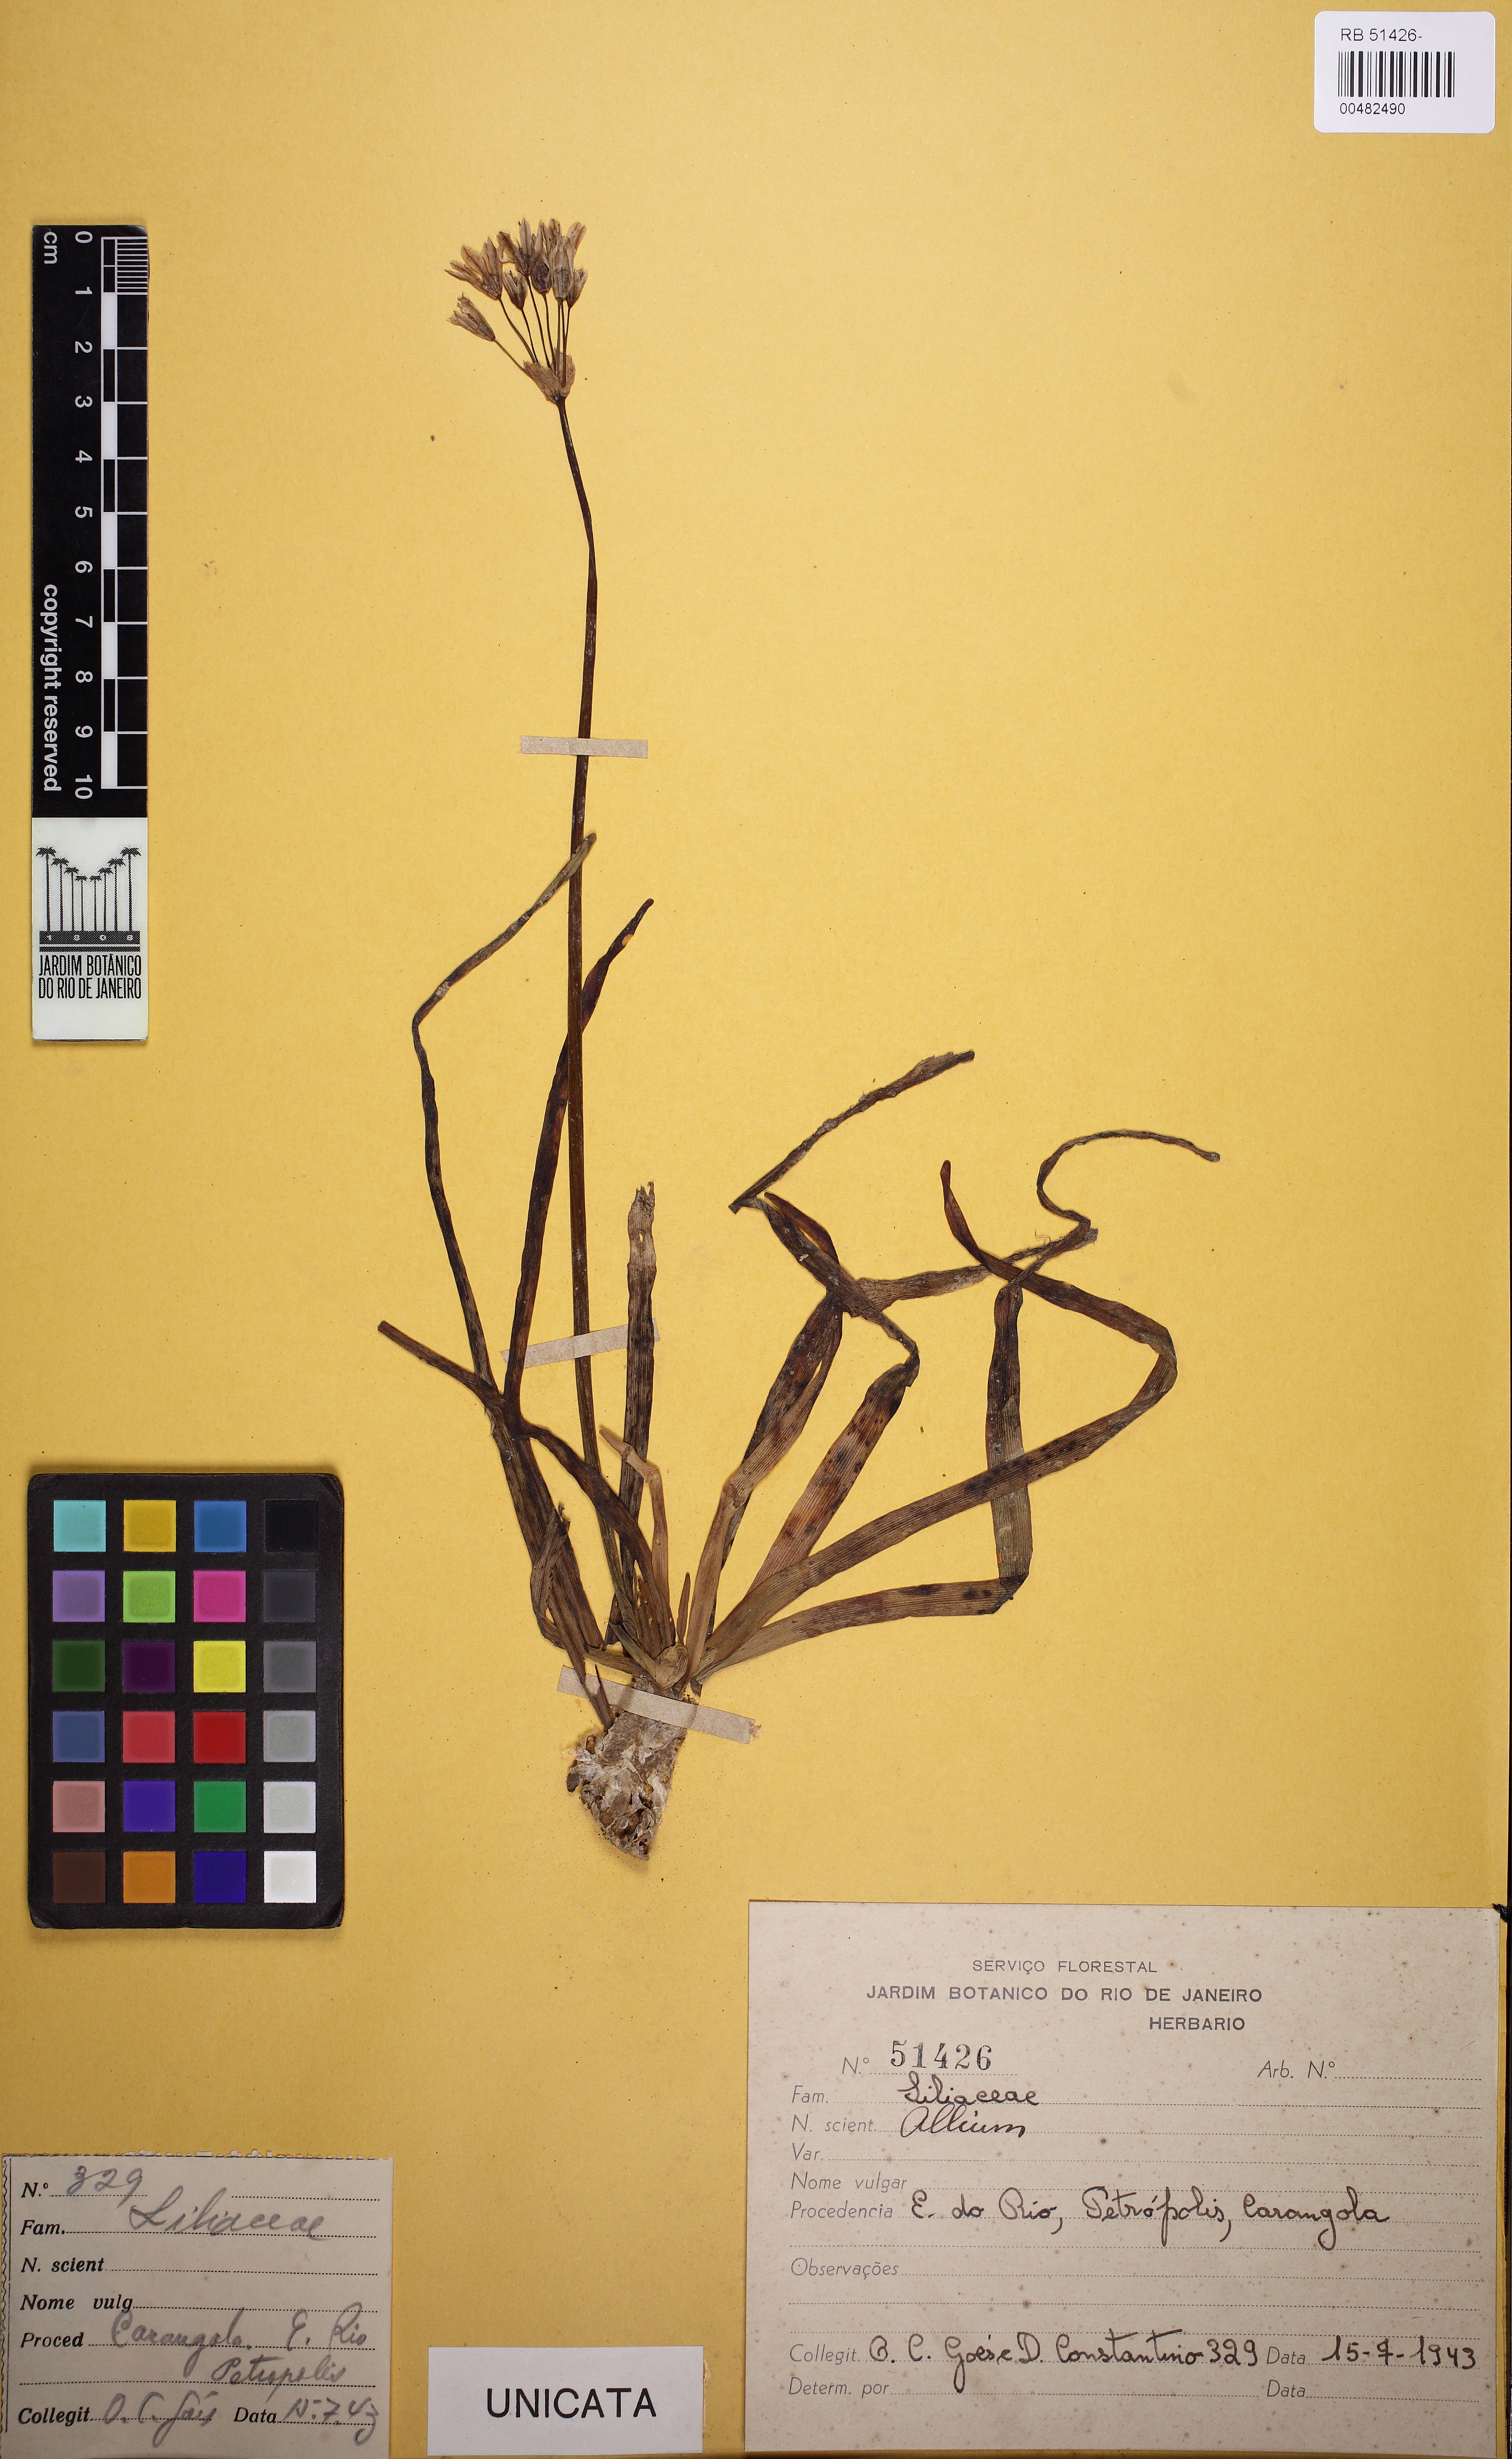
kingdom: Plantae
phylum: Tracheophyta
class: Liliopsida
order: Asparagales
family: Amaryllidaceae
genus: Allium
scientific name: Allium
